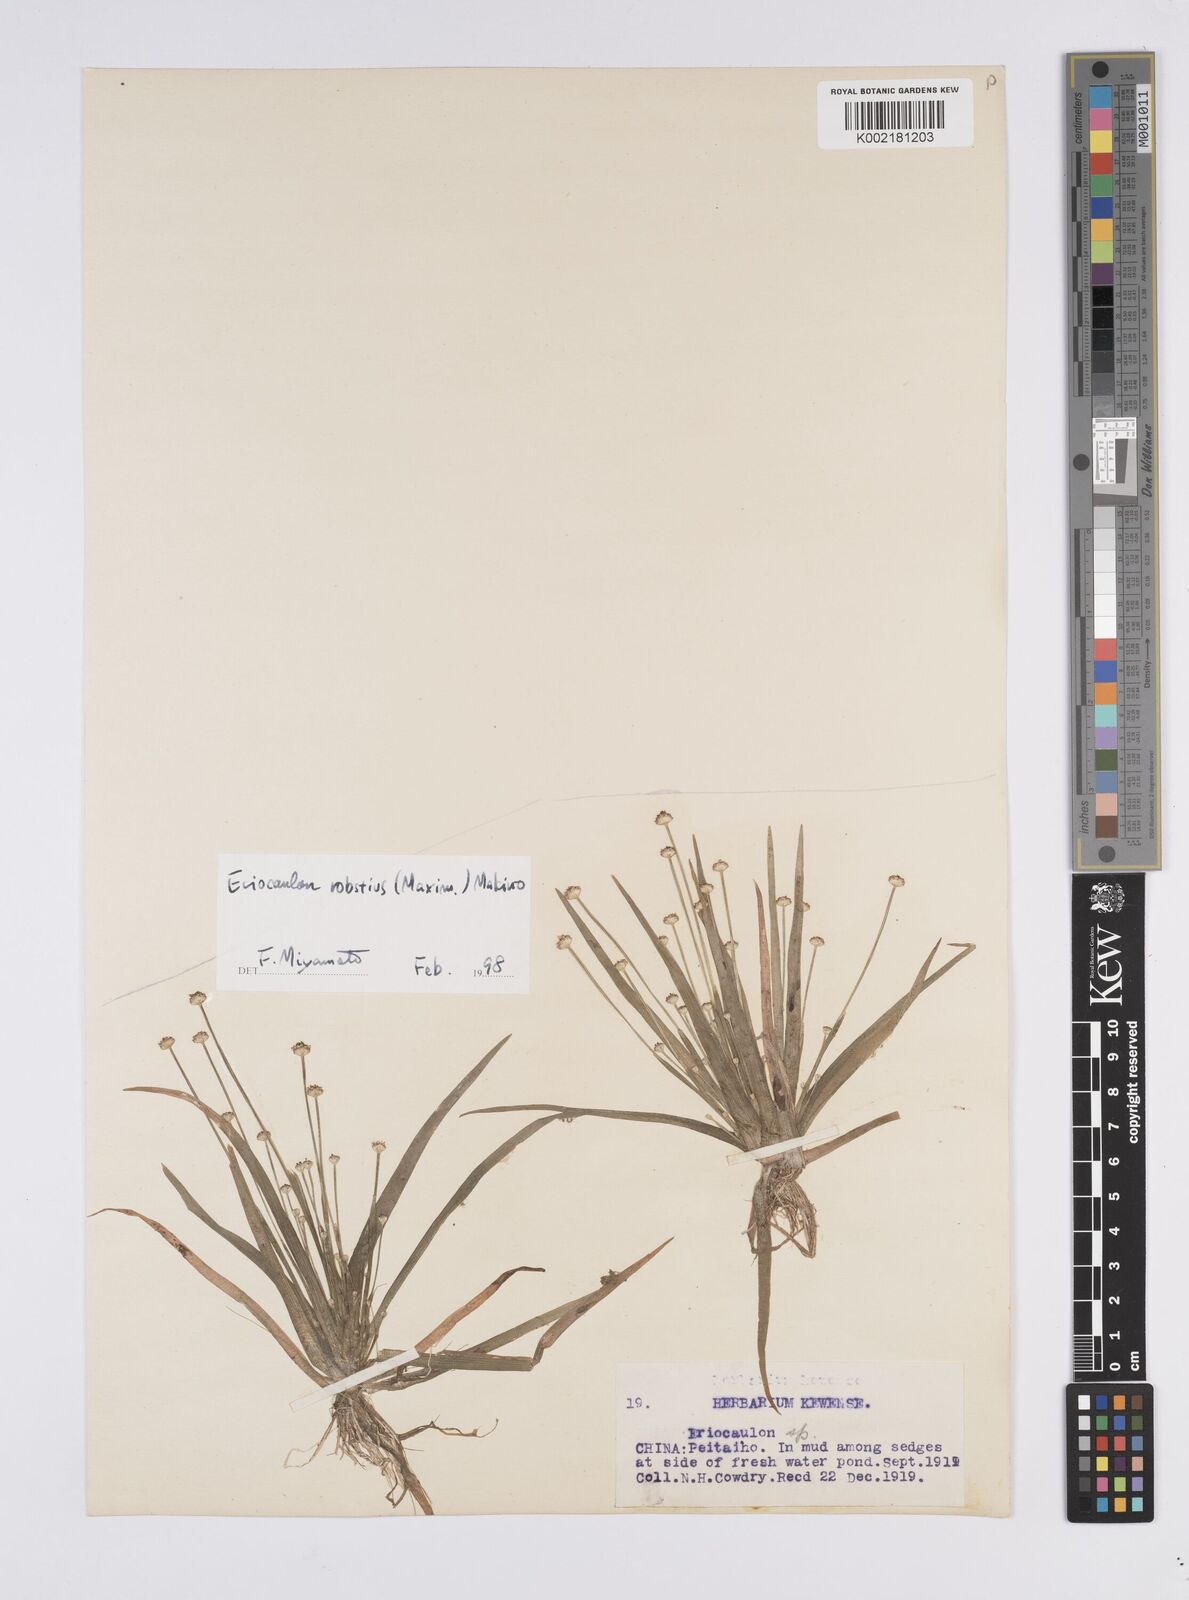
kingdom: Plantae
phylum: Tracheophyta
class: Liliopsida
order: Poales
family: Eriocaulaceae
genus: Eriocaulon
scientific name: Eriocaulon alpestre
